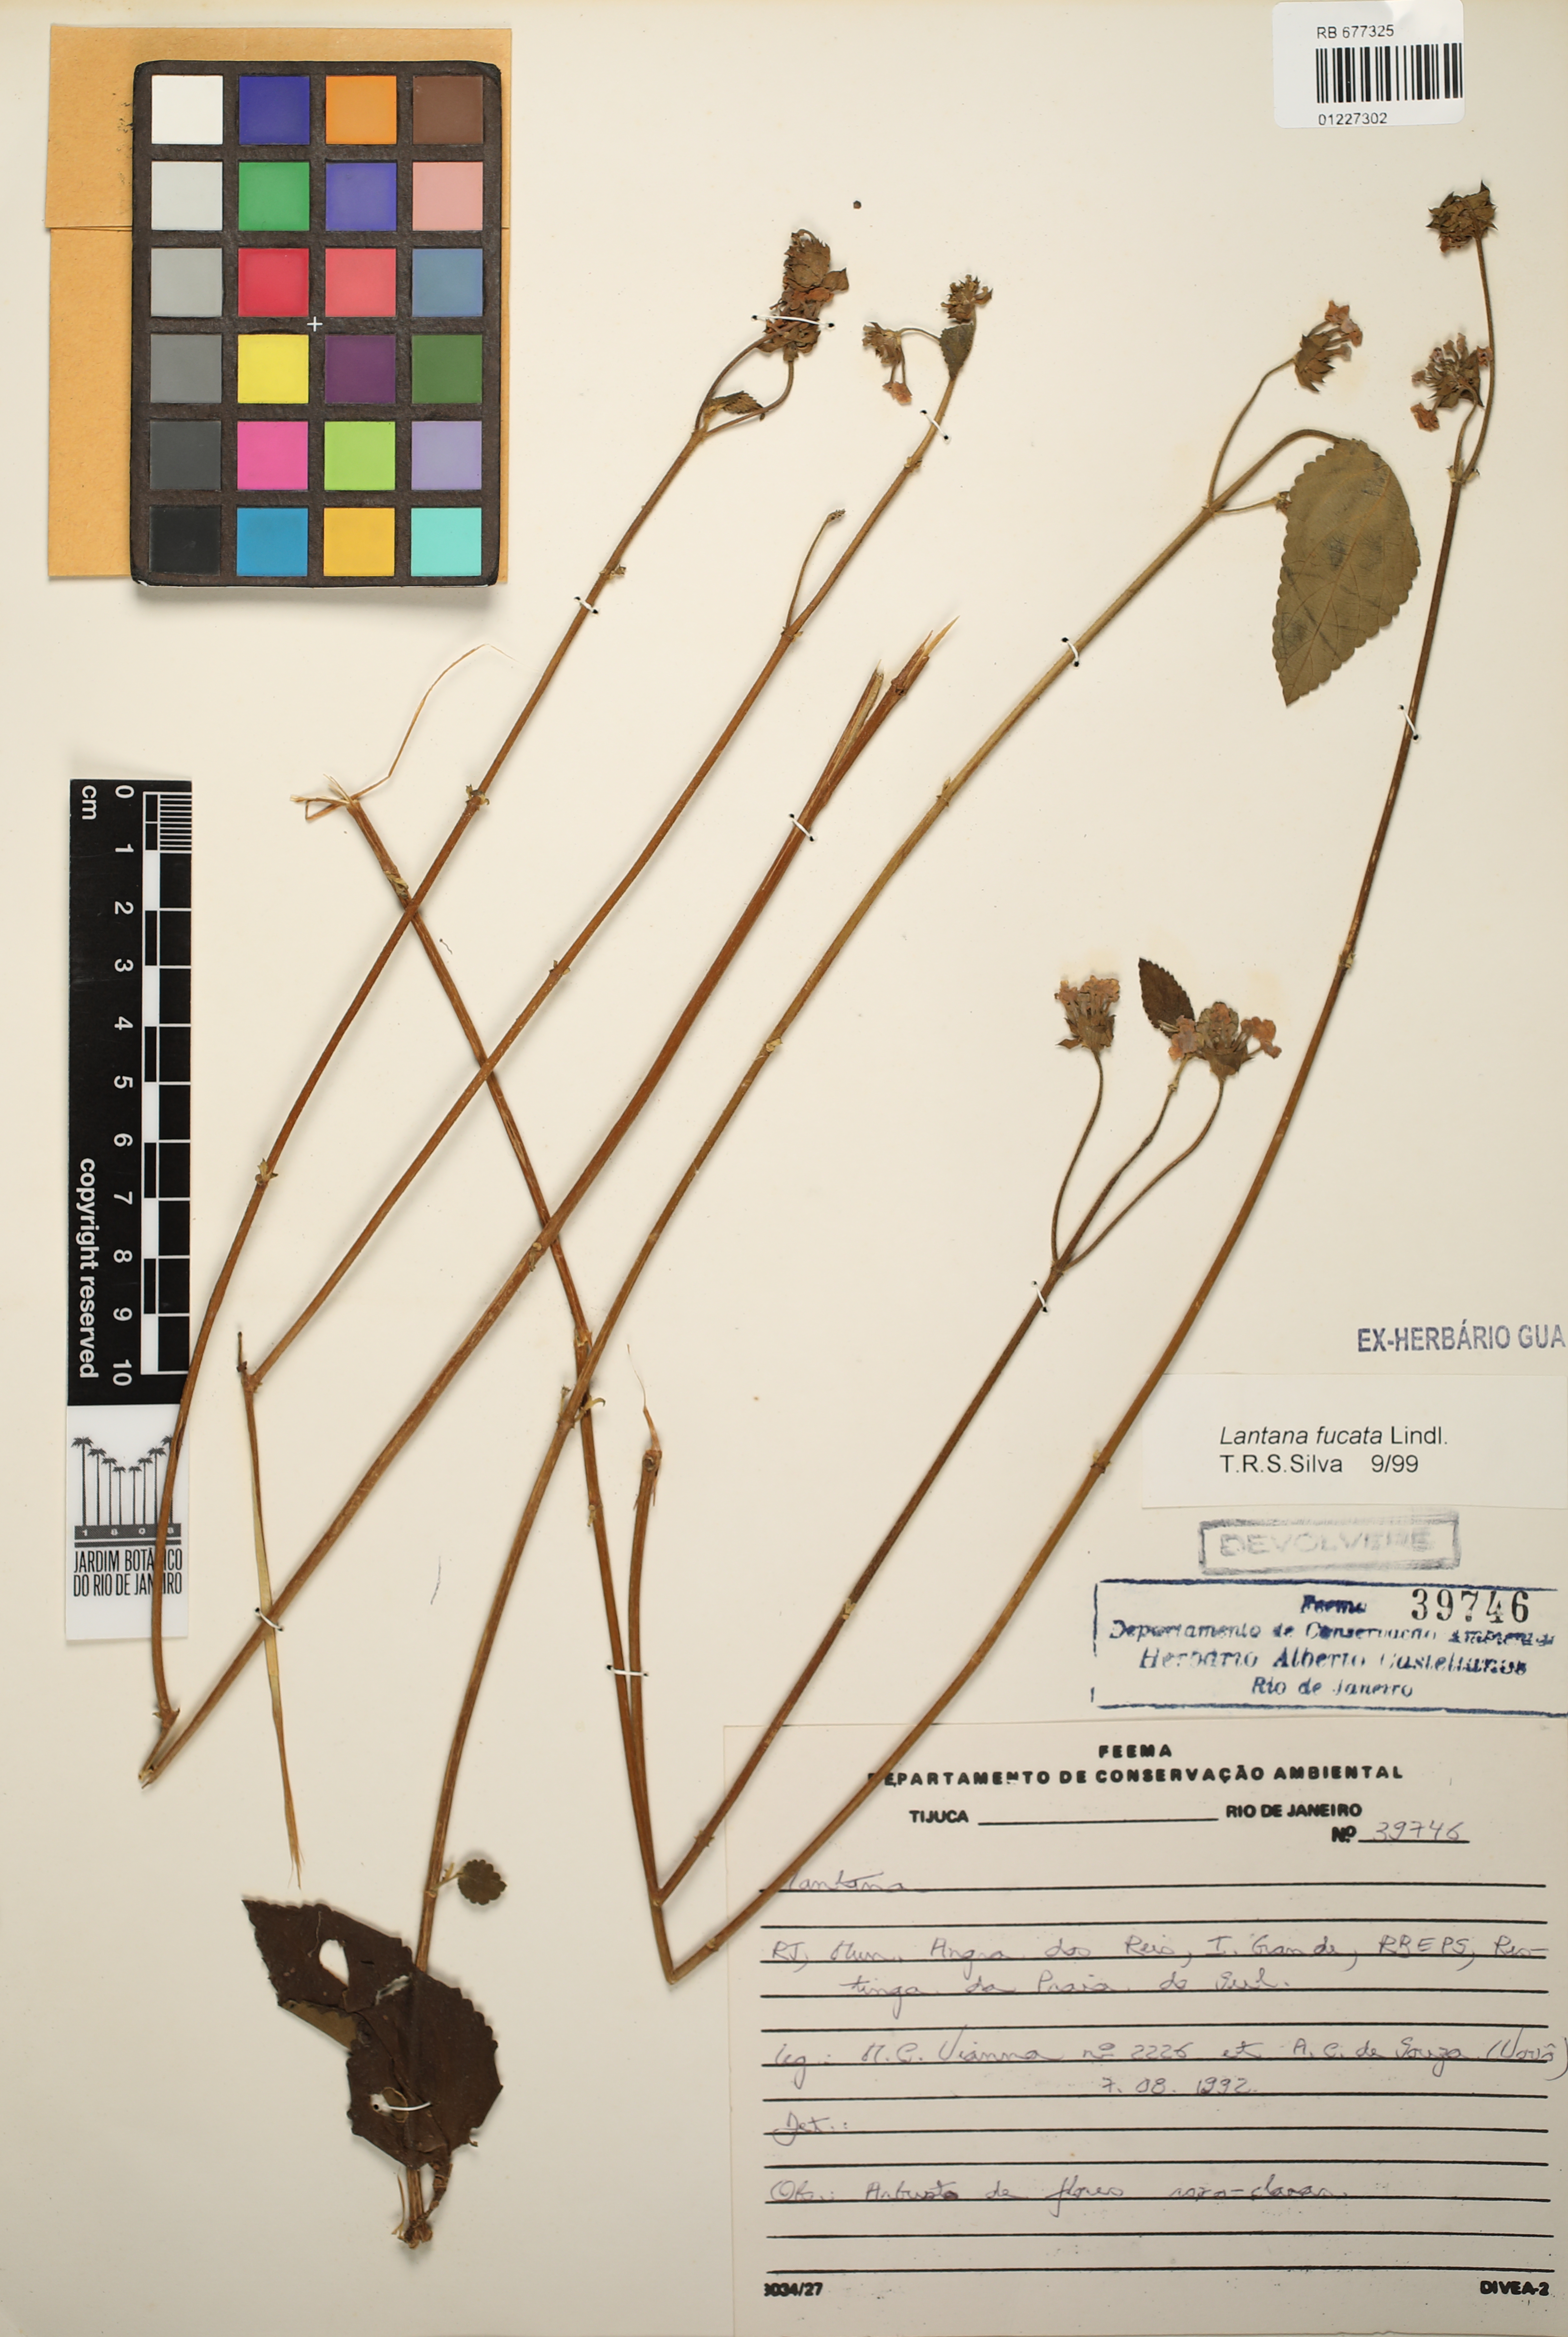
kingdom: Plantae
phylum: Tracheophyta
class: Magnoliopsida
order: Lamiales
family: Verbenaceae
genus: Lantana
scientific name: Lantana fucata
